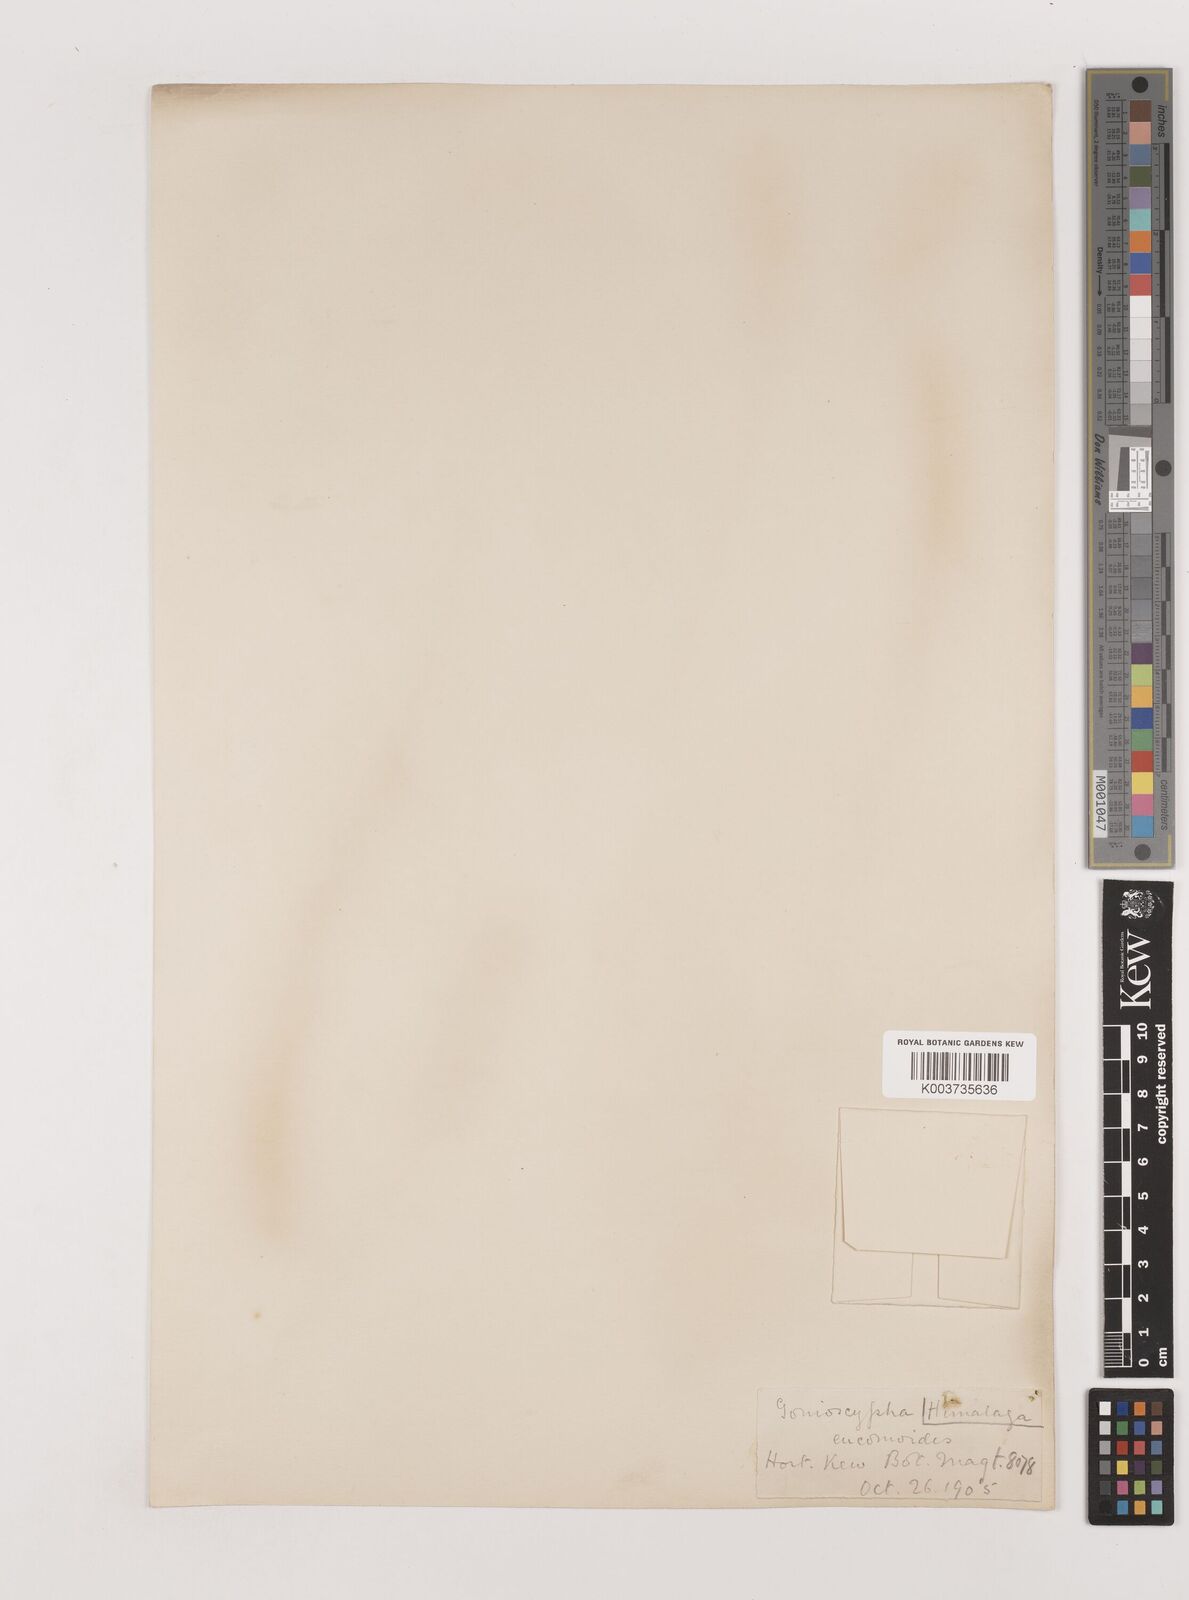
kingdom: Plantae
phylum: Tracheophyta
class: Liliopsida
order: Asparagales
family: Asparagaceae
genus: Rohdea
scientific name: Rohdea eucomoides
